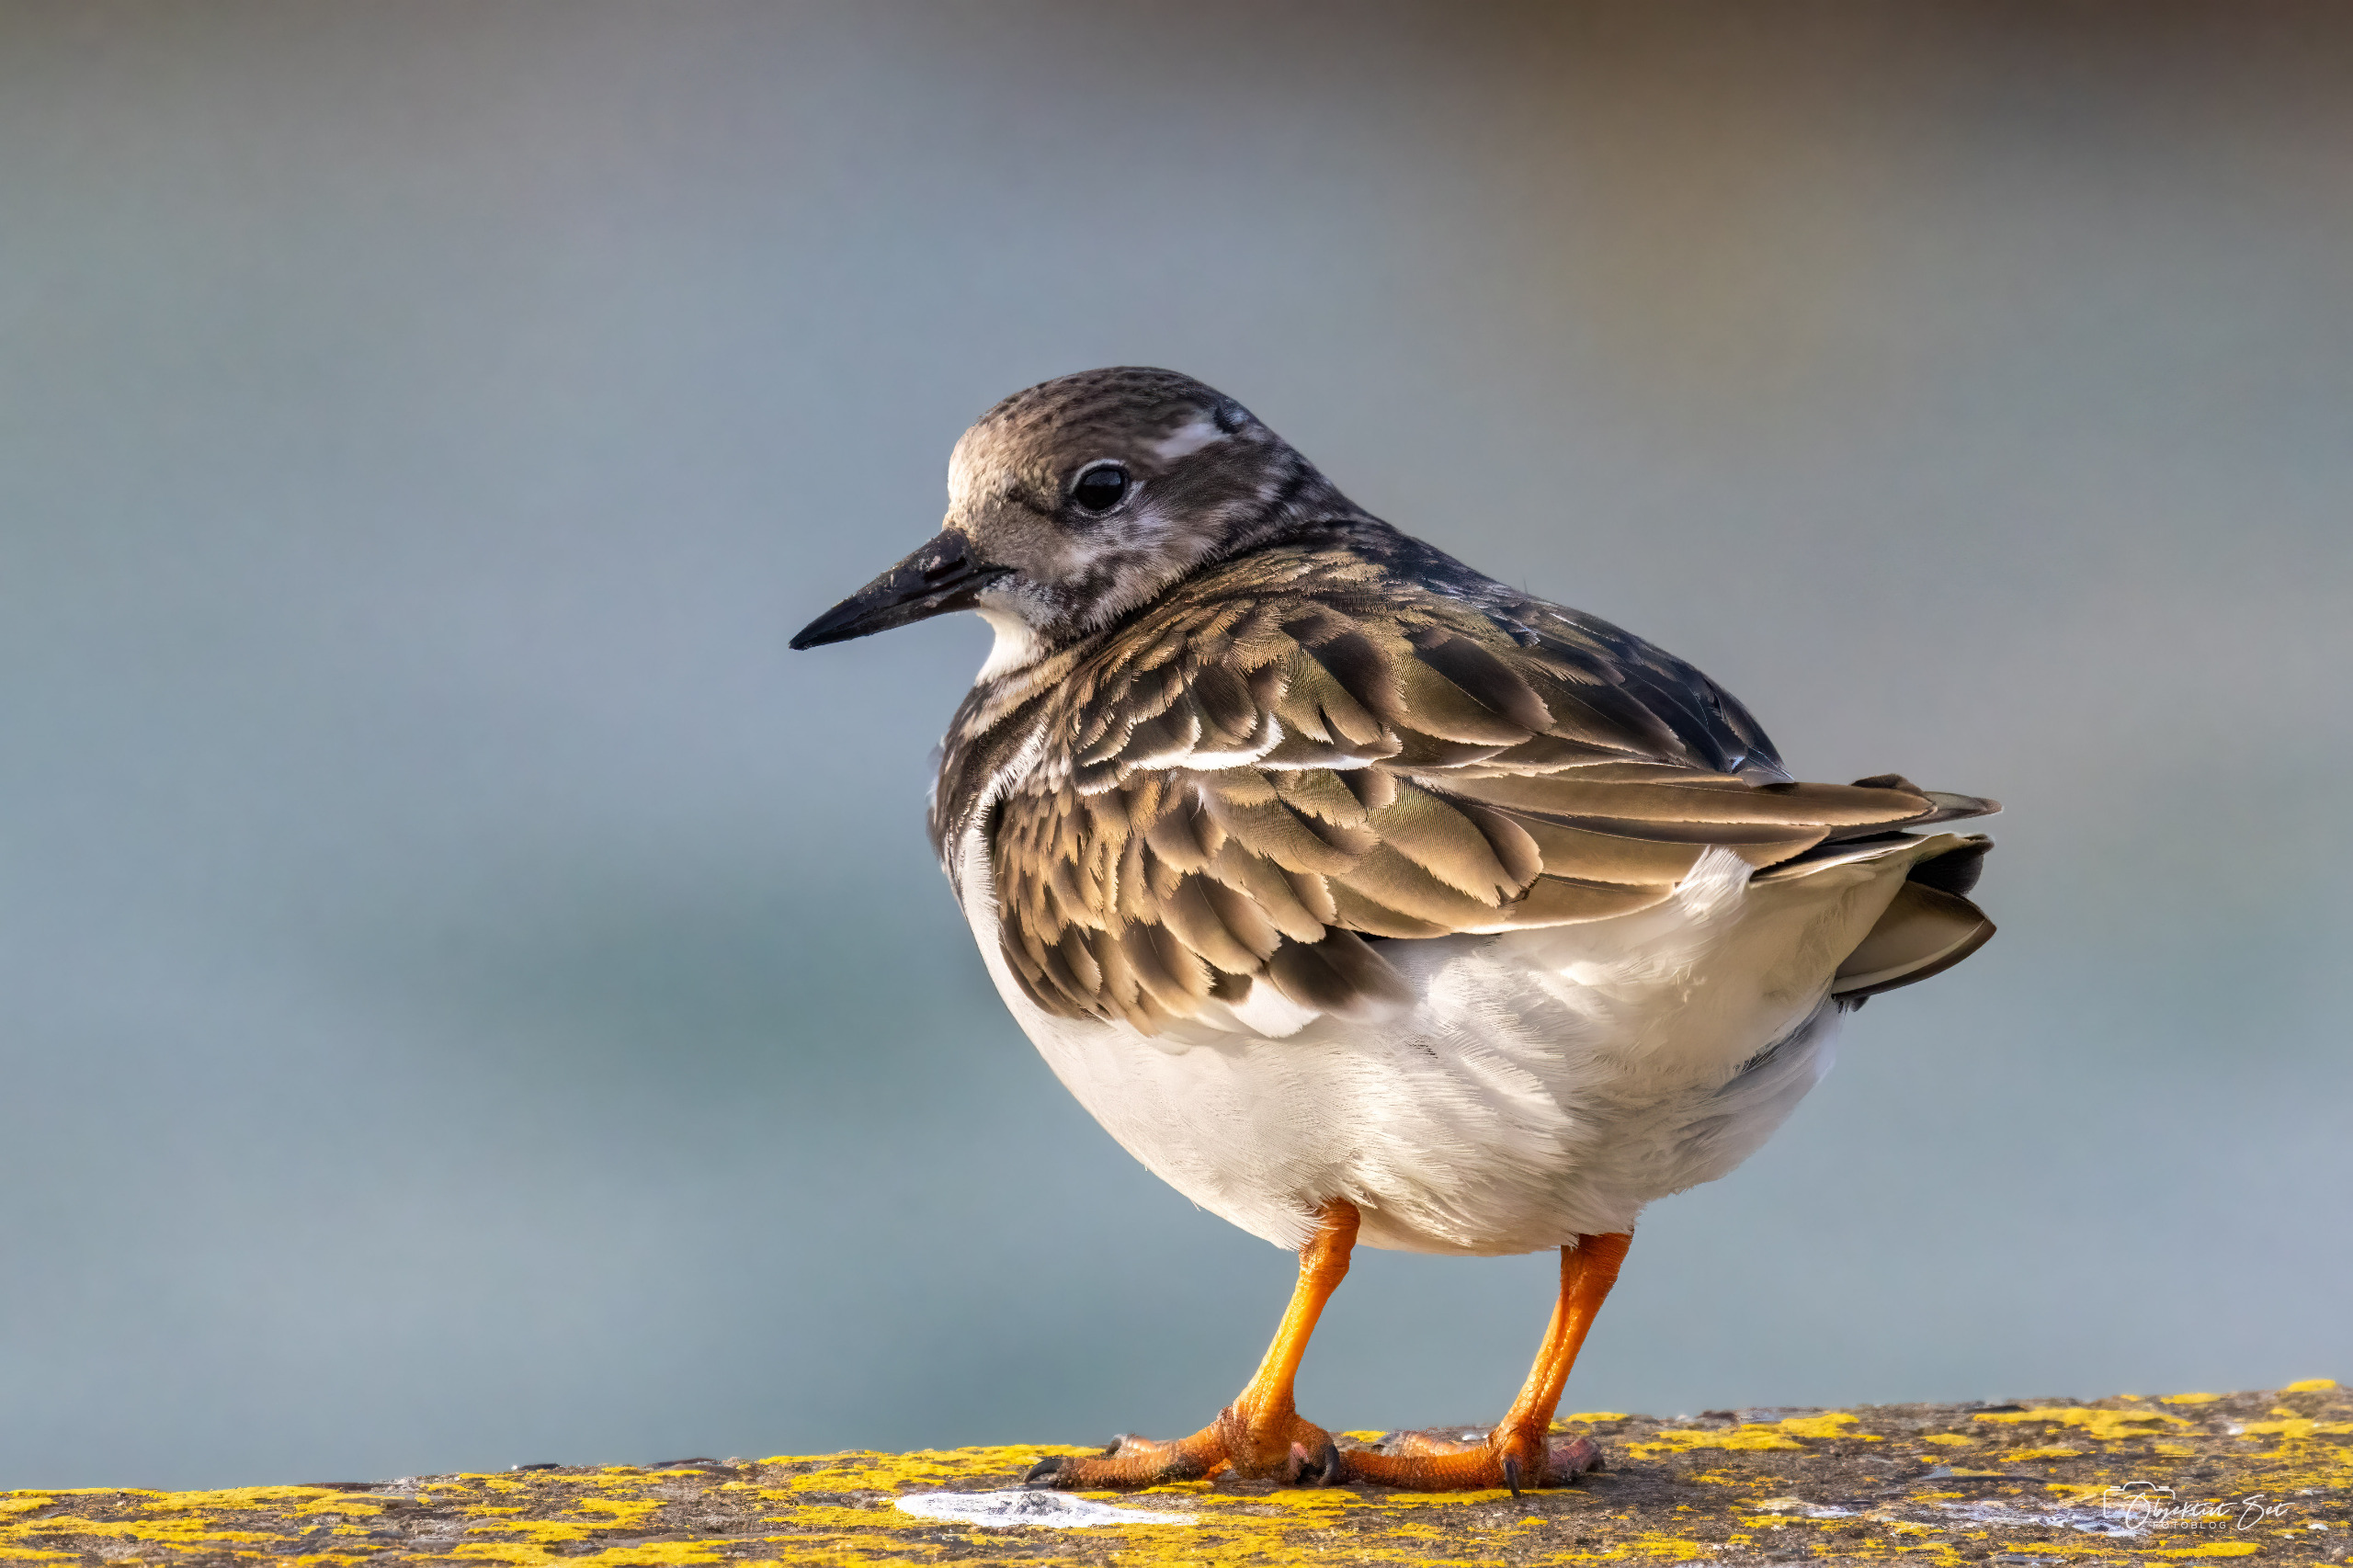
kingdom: Animalia
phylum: Chordata
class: Aves
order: Charadriiformes
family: Scolopacidae
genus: Arenaria
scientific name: Arenaria interpres
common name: Stenvender
